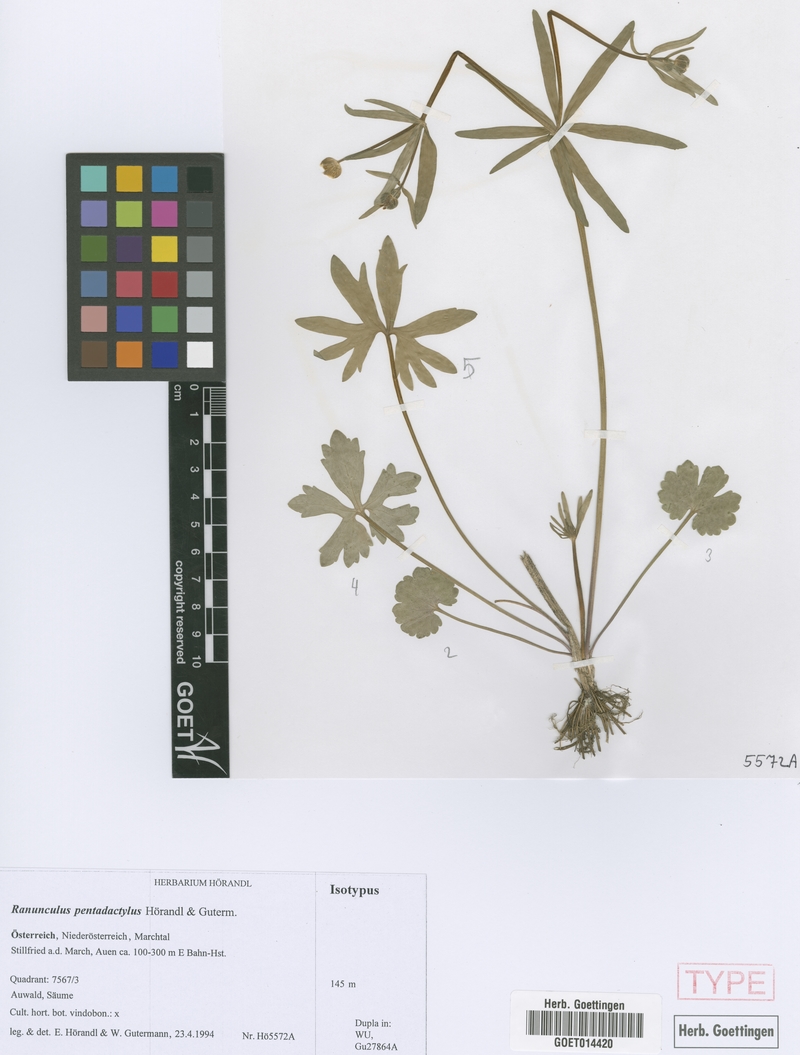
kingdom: Plantae
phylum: Tracheophyta
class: Magnoliopsida
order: Ranunculales
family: Ranunculaceae
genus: Ranunculus
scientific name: Ranunculus pentadactylus
